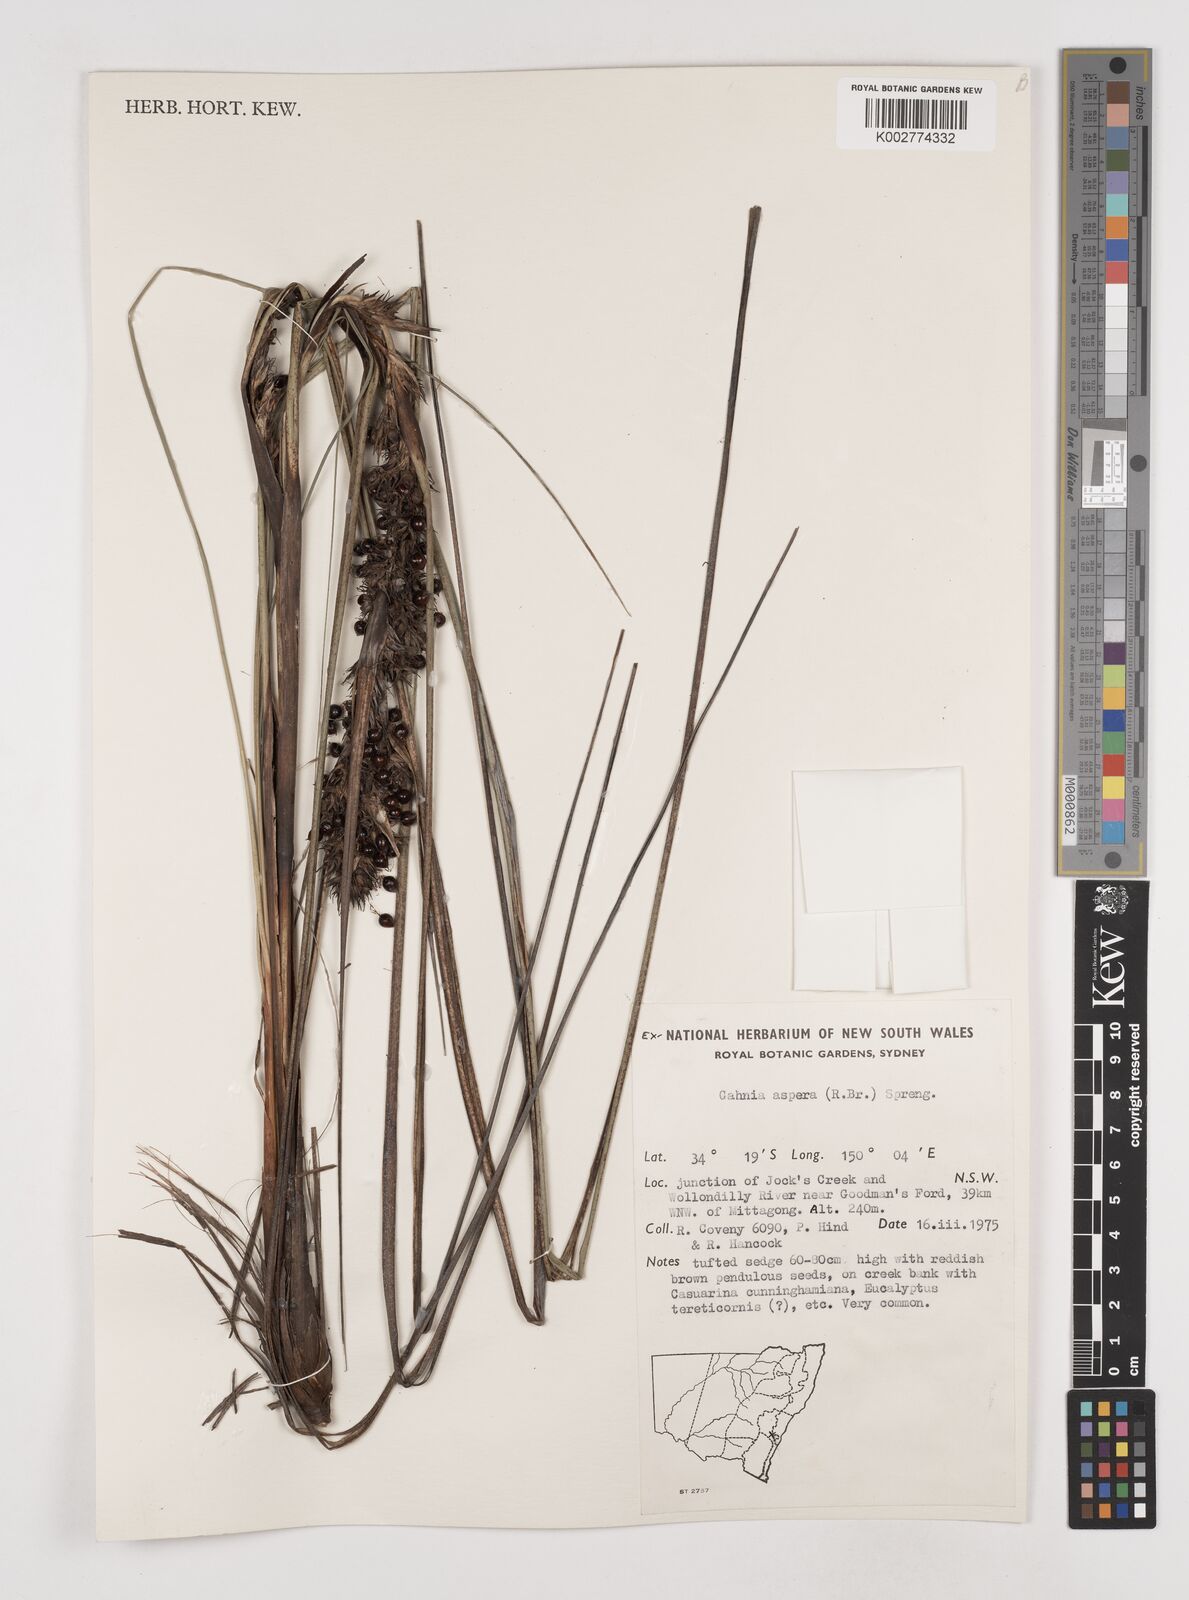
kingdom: Plantae
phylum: Tracheophyta
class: Liliopsida
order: Poales
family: Cyperaceae
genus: Gahnia
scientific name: Gahnia aspera
